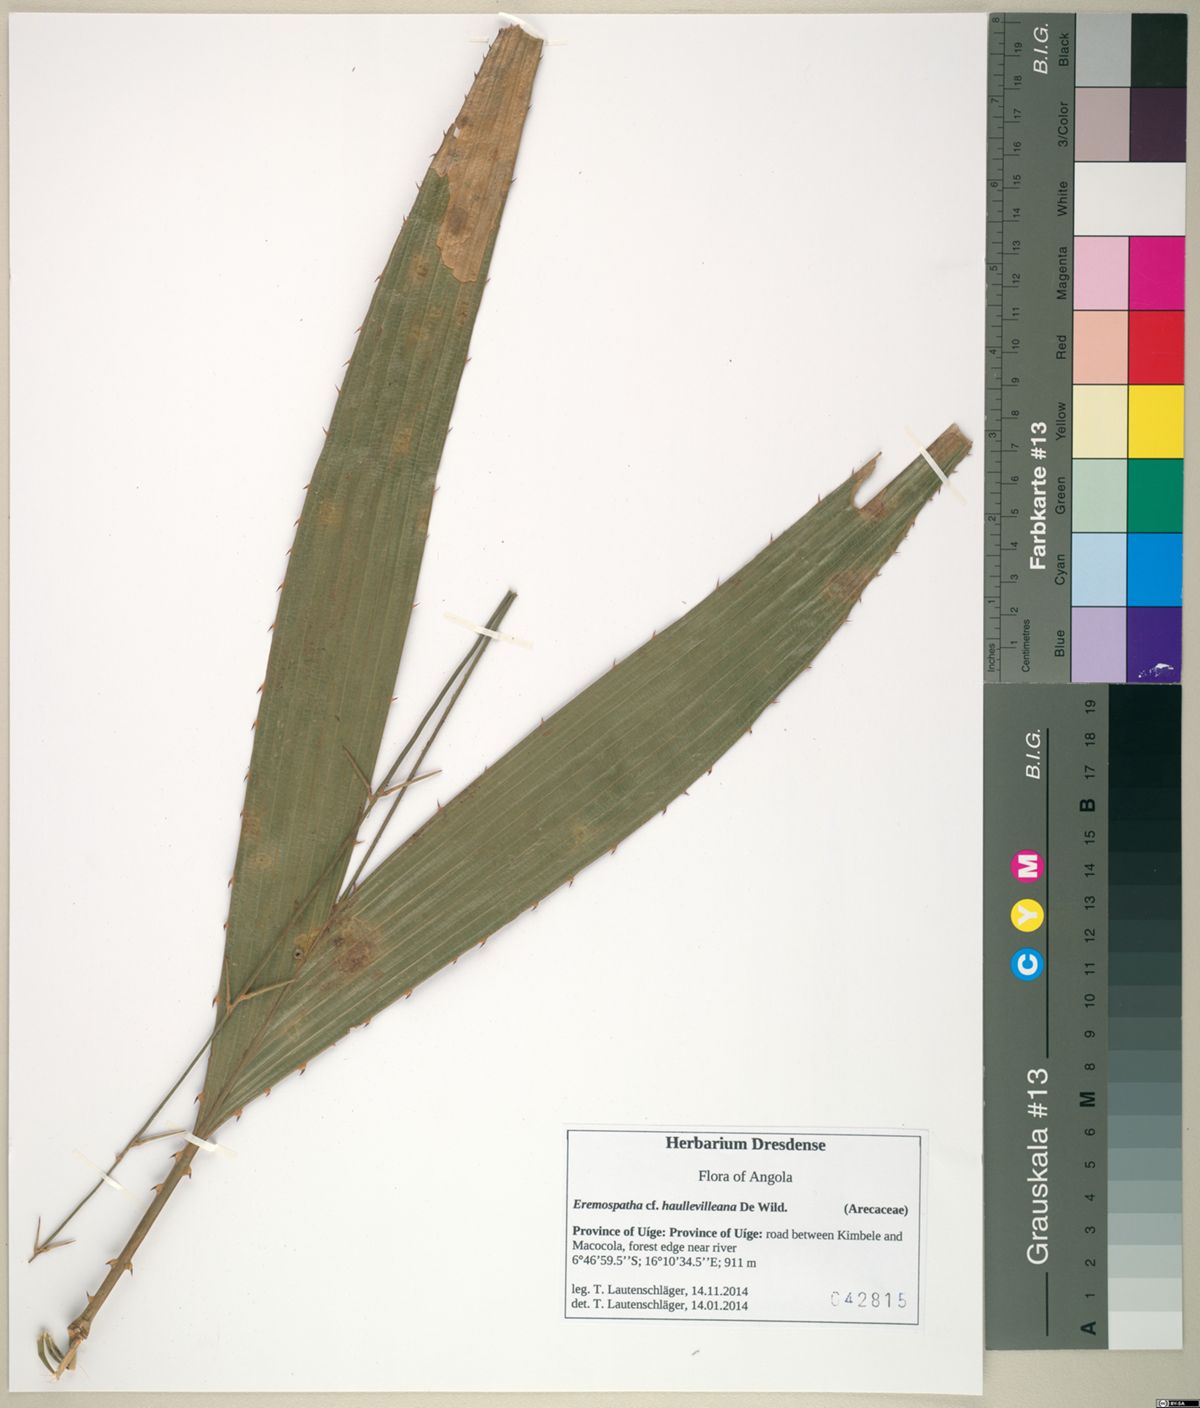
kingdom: Plantae
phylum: Tracheophyta
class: Liliopsida
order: Arecales
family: Arecaceae
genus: Eremospatha
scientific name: Eremospatha haullevilleana
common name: Rattan
